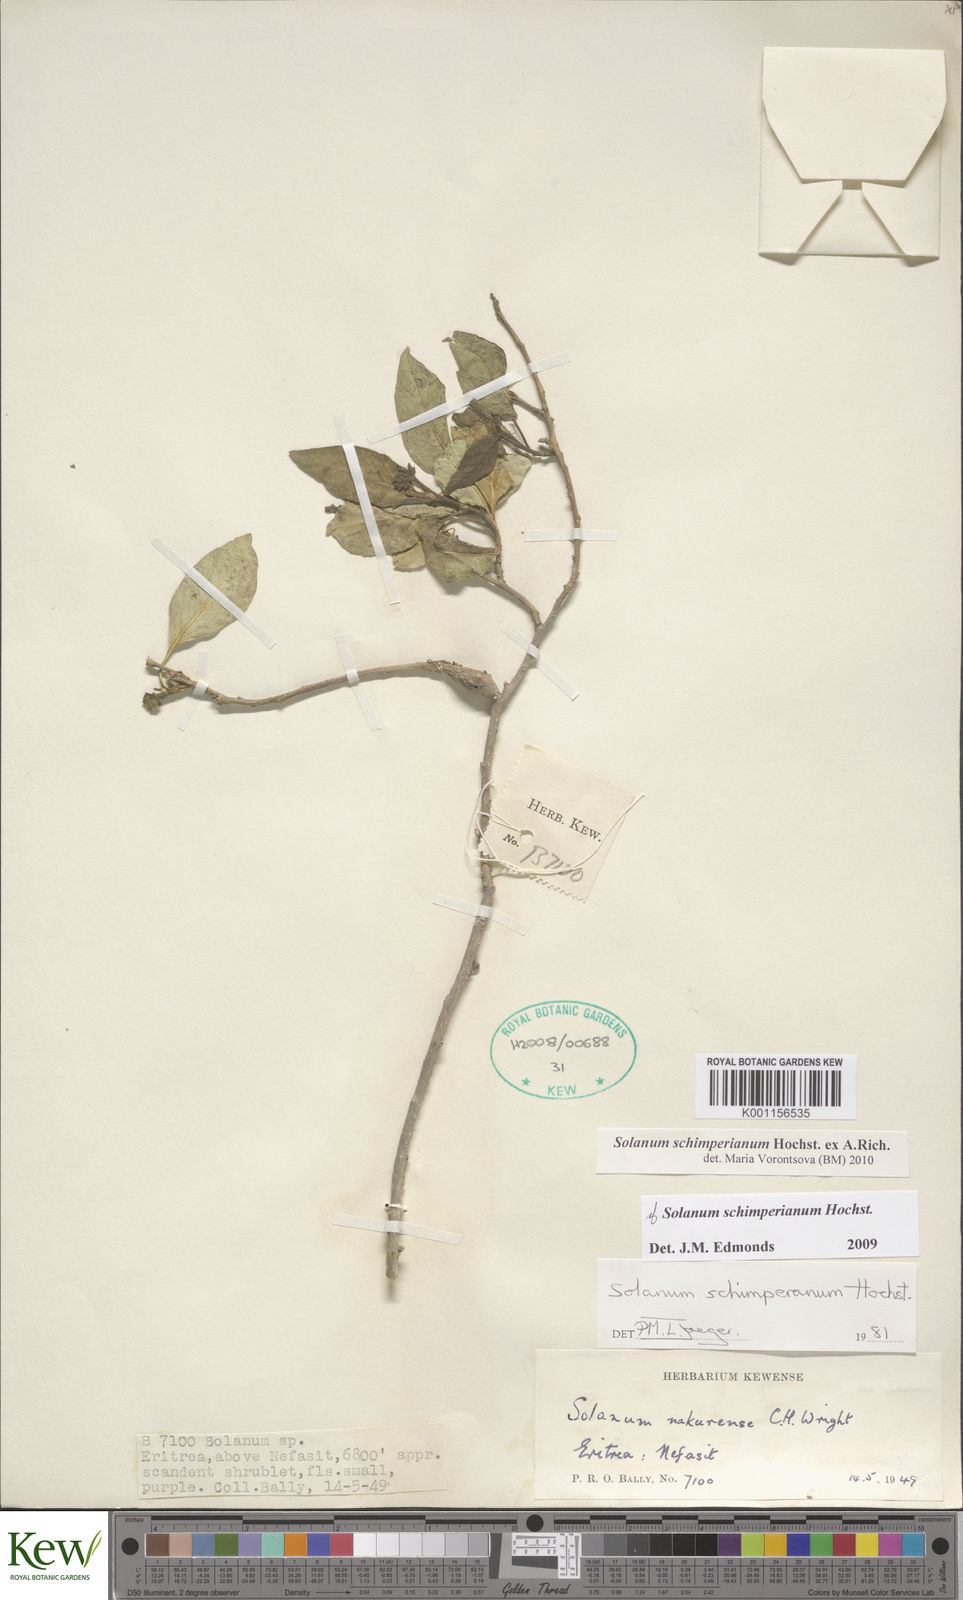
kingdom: Plantae
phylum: Tracheophyta
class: Magnoliopsida
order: Solanales
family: Solanaceae
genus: Solanum
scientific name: Solanum
